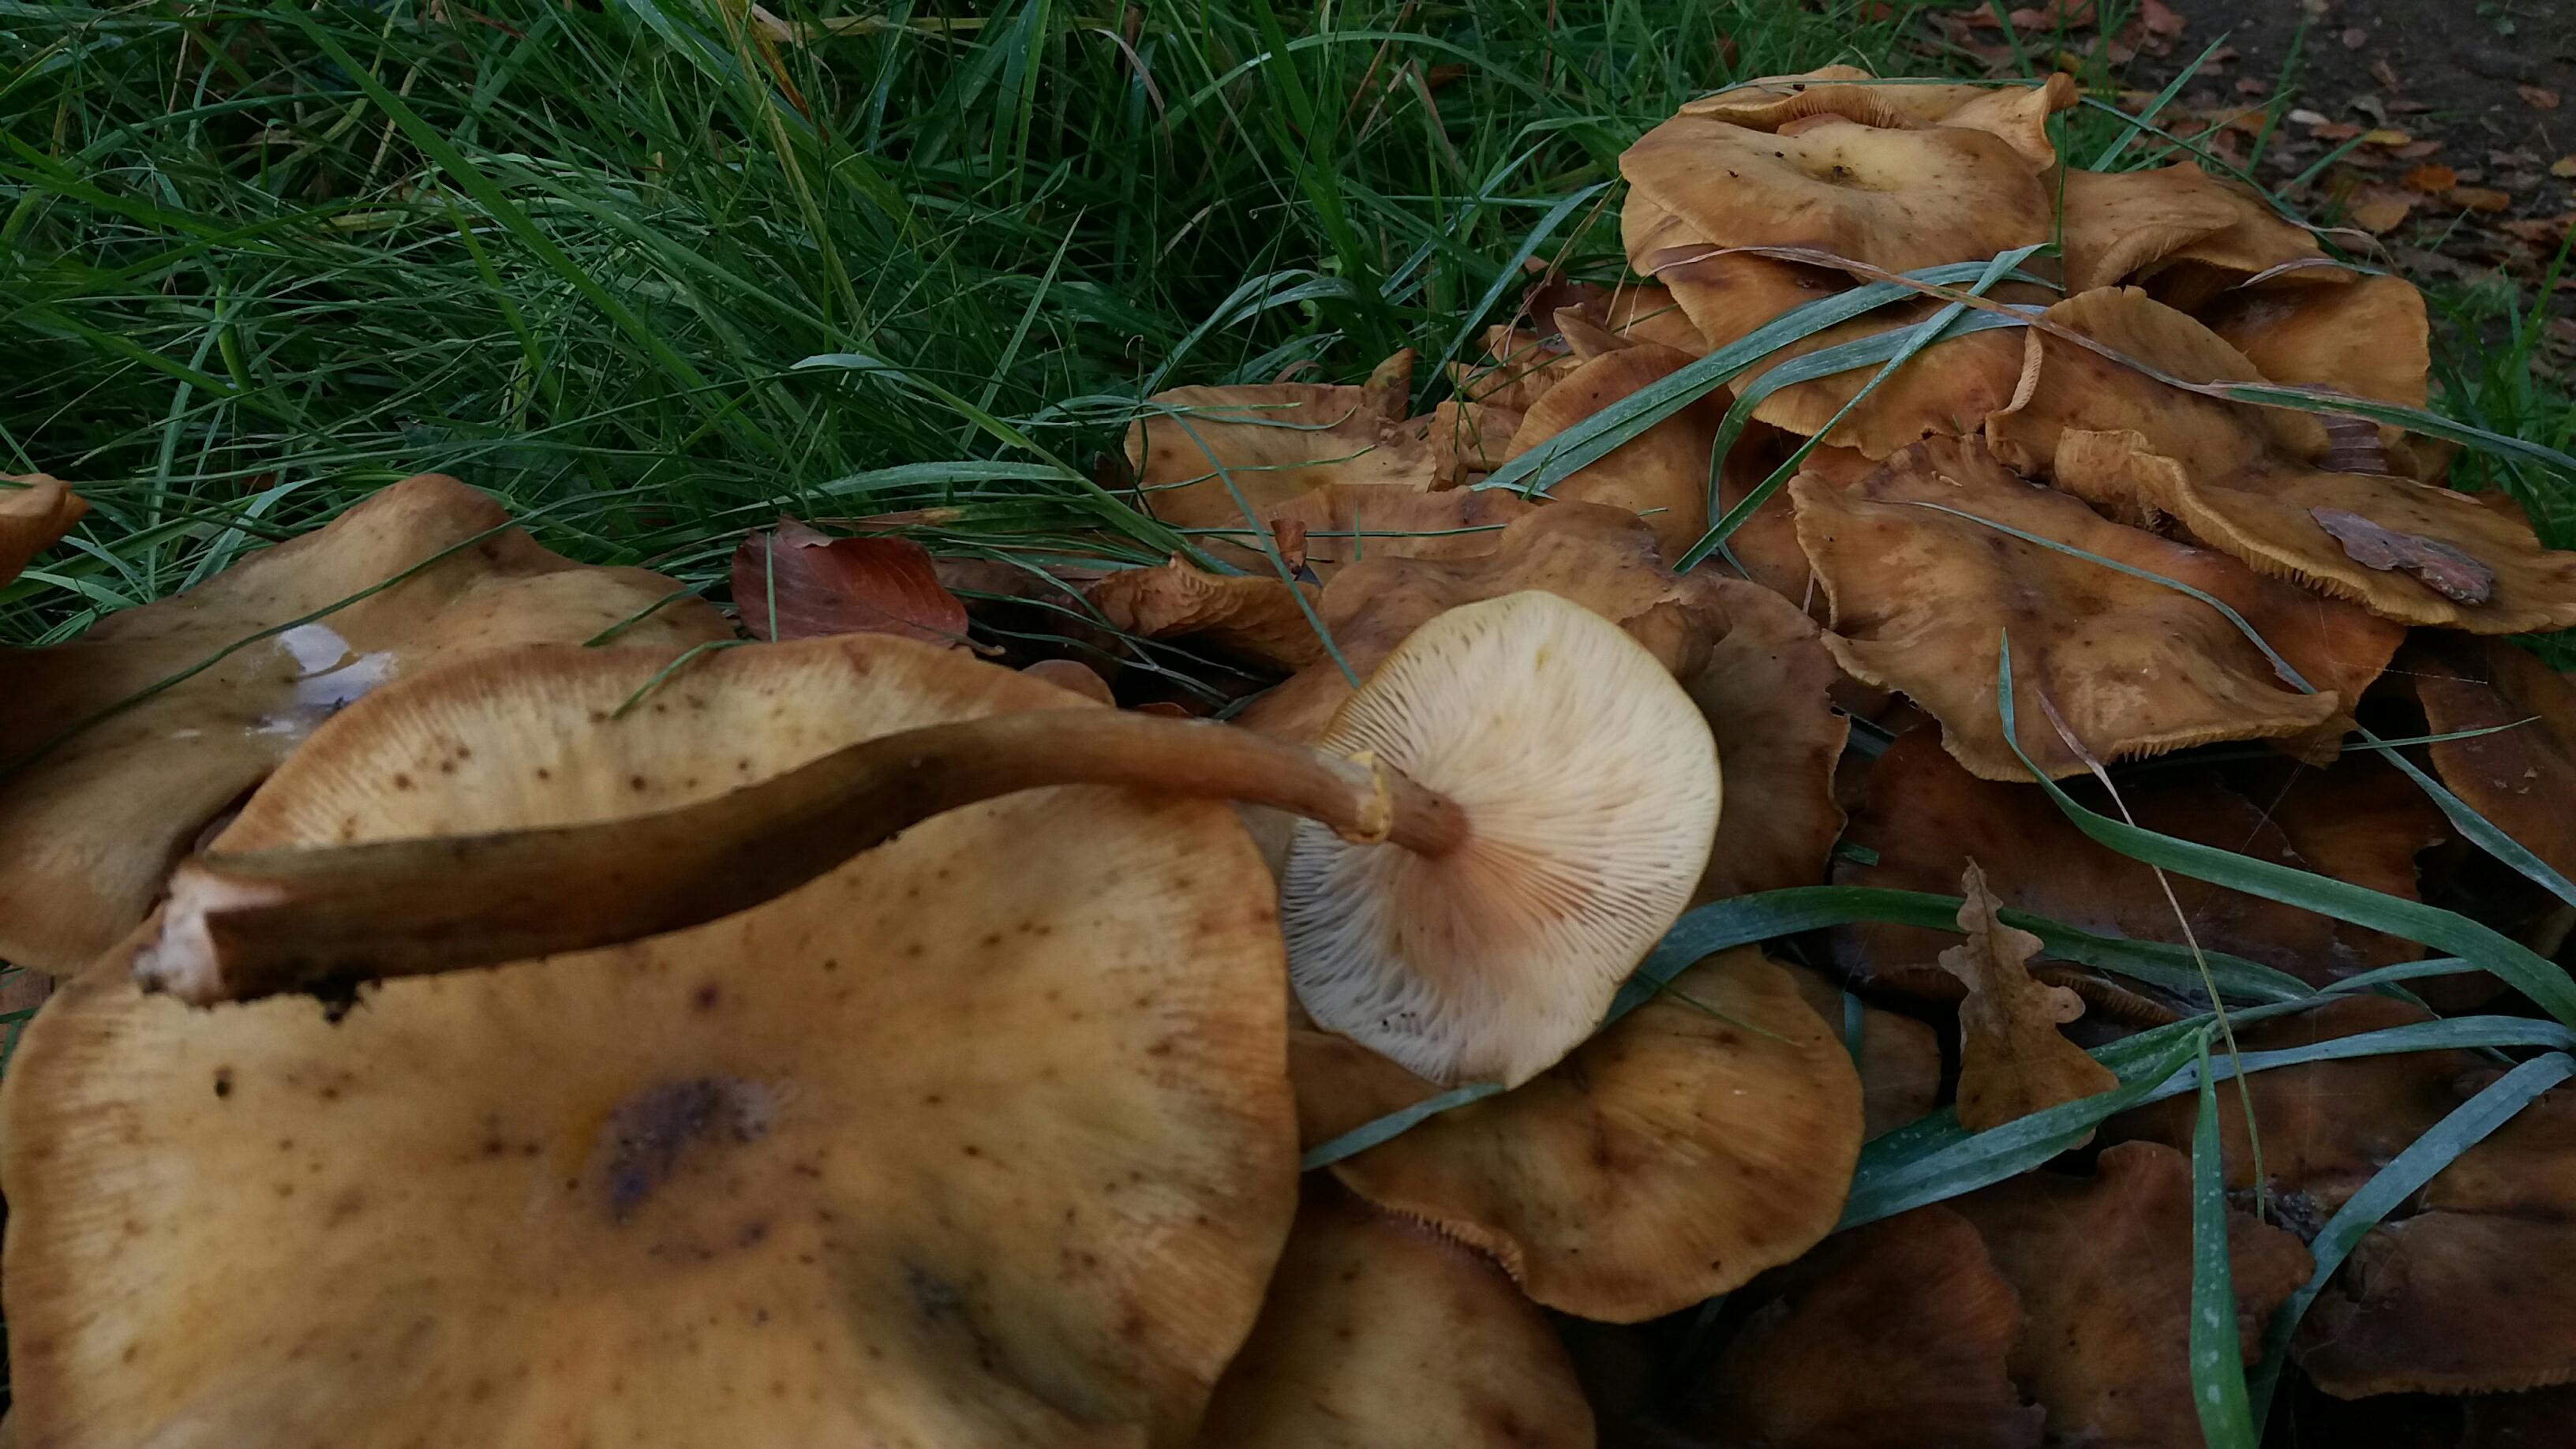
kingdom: Fungi
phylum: Basidiomycota
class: Agaricomycetes
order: Agaricales
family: Physalacriaceae
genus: Armillaria
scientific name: Armillaria mellea
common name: ægte honningsvamp
